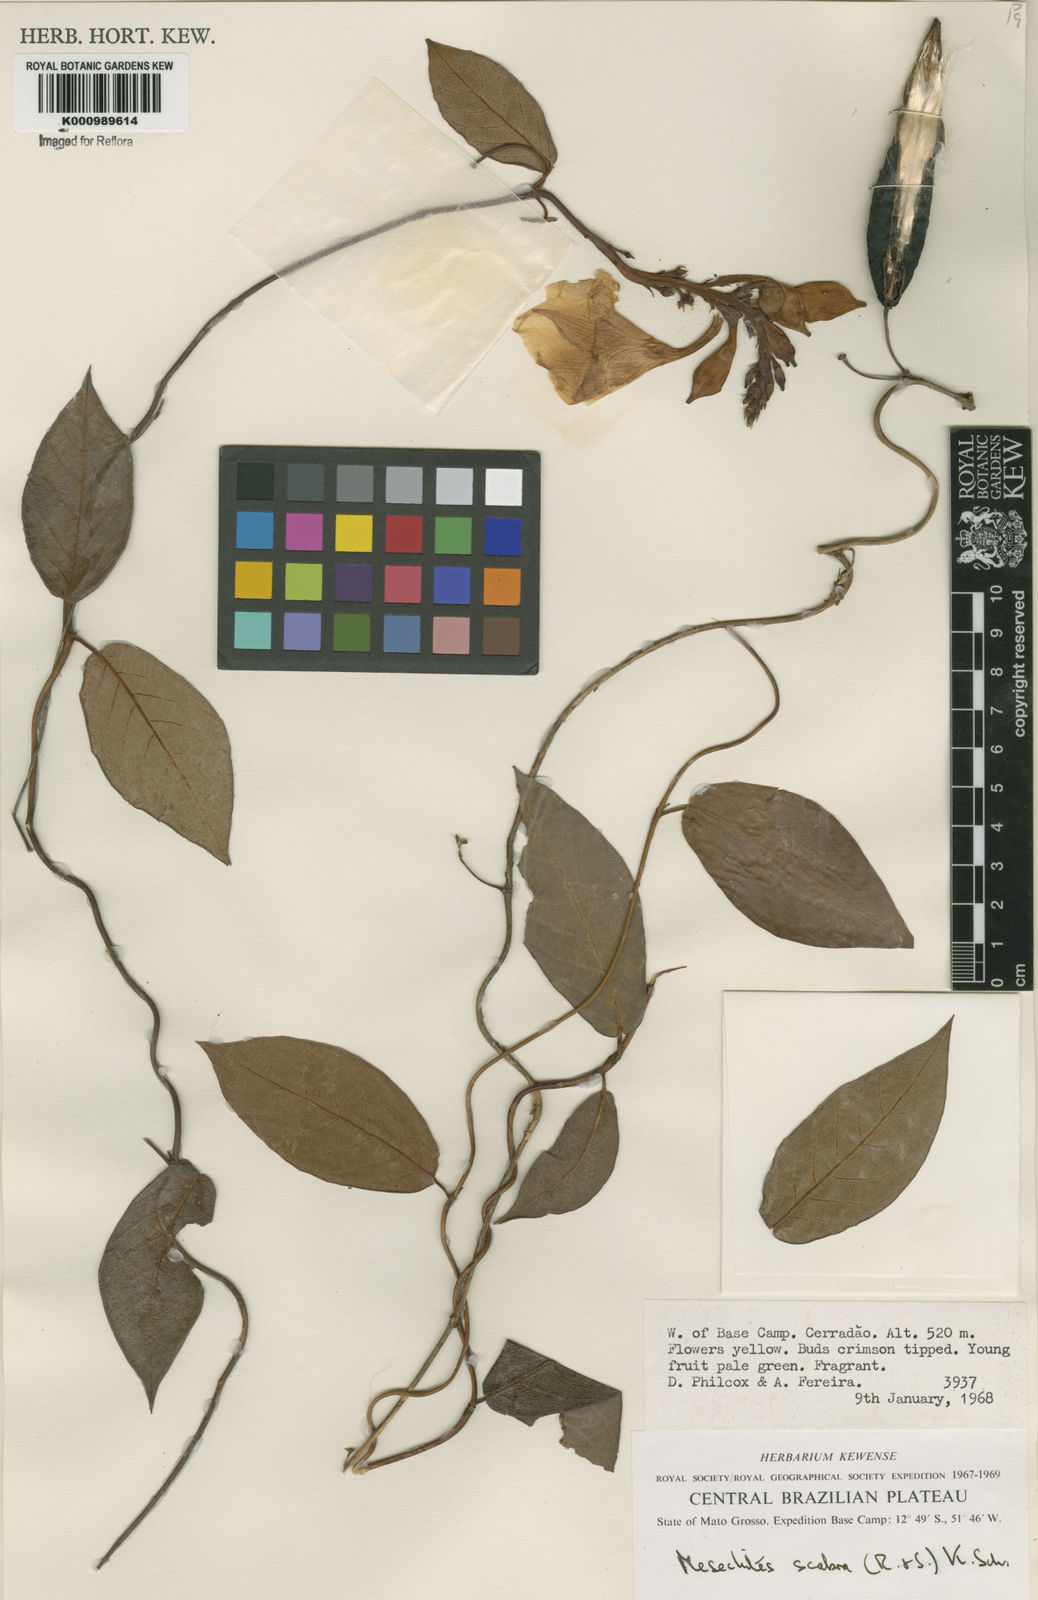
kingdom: Plantae
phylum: Tracheophyta
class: Magnoliopsida
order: Gentianales
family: Apocynaceae
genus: Mandevilla
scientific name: Mandevilla scabra
